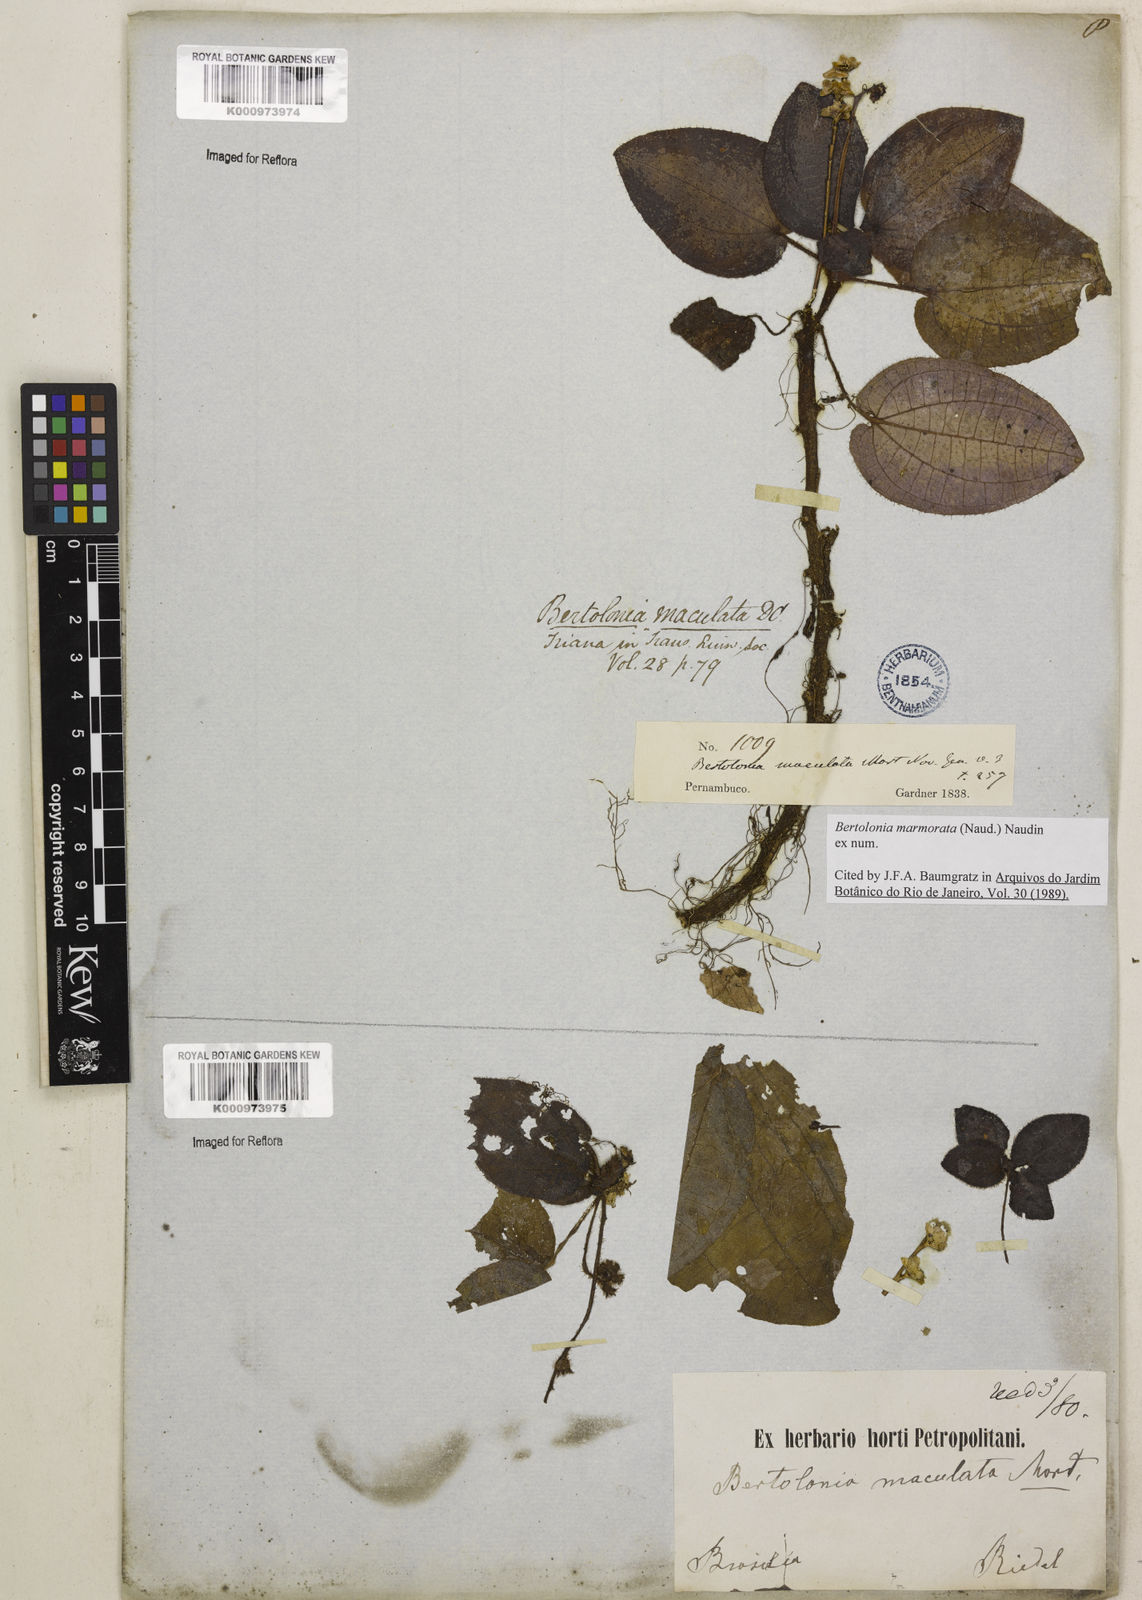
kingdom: Plantae
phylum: Tracheophyta
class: Magnoliopsida
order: Myrtales
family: Melastomataceae
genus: Bertolonia
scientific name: Bertolonia marmorata
